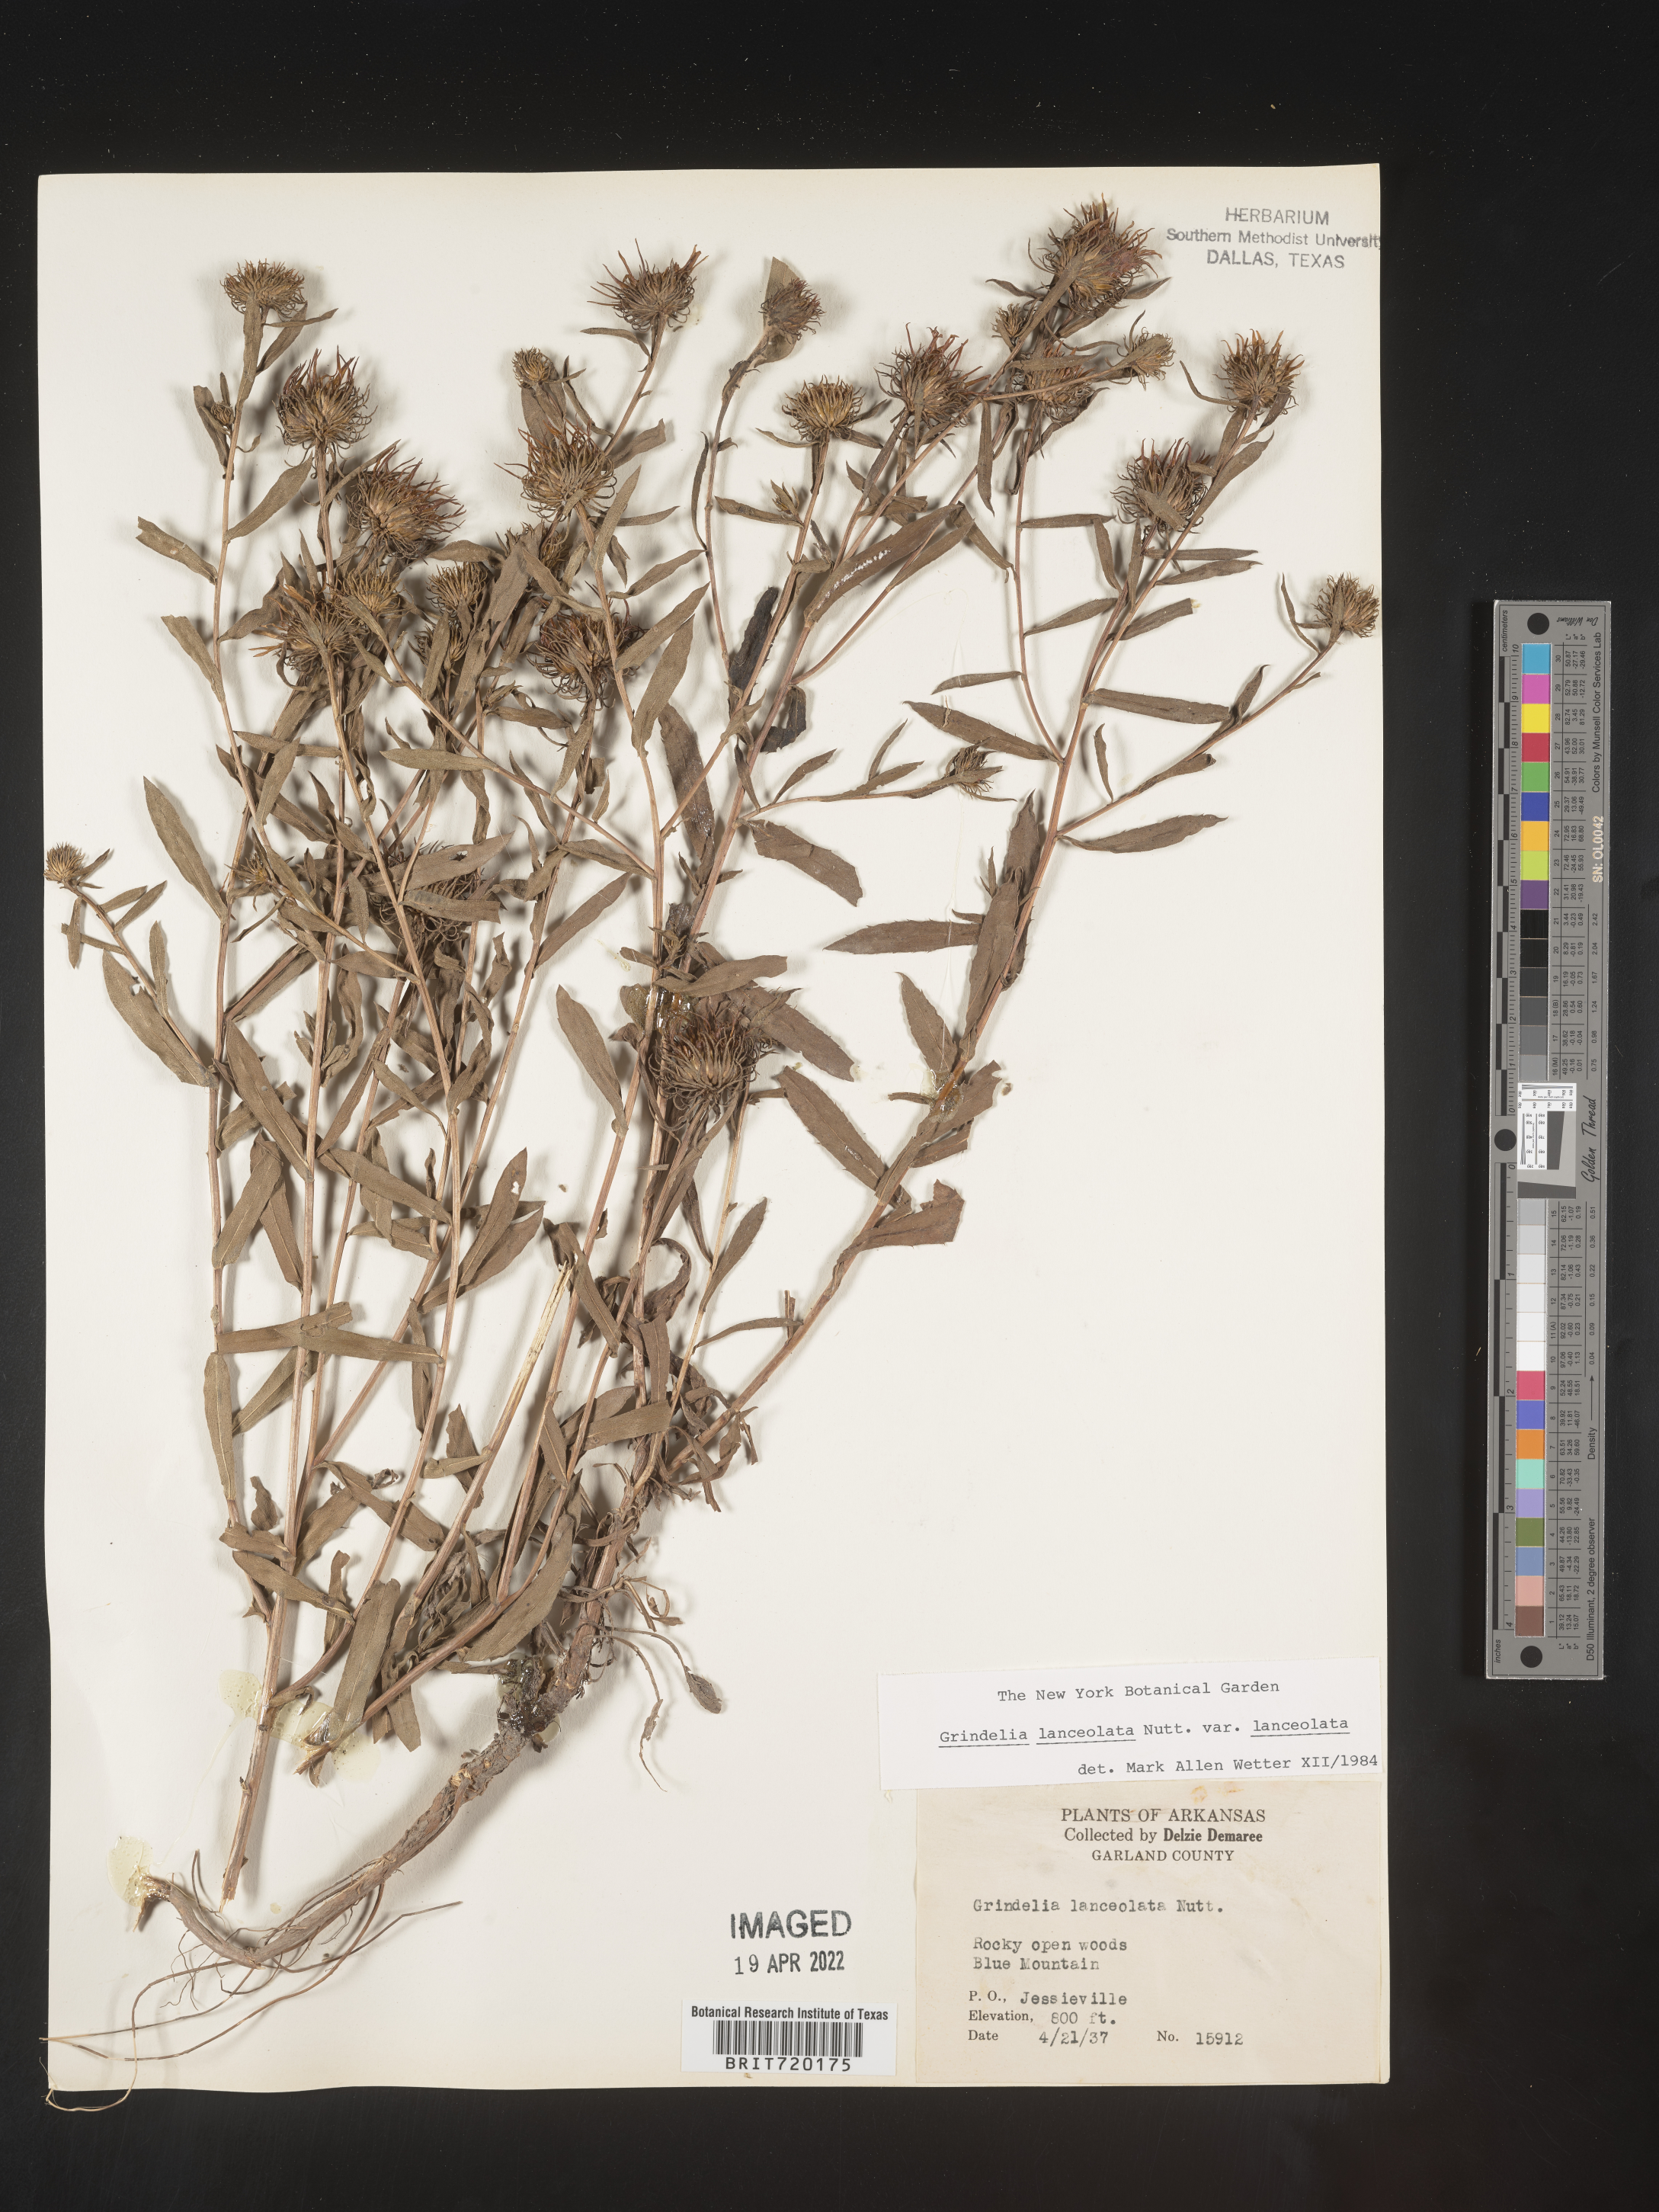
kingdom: Plantae
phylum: Tracheophyta
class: Magnoliopsida
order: Asterales
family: Asteraceae
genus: Grindelia
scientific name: Grindelia lanceolata
